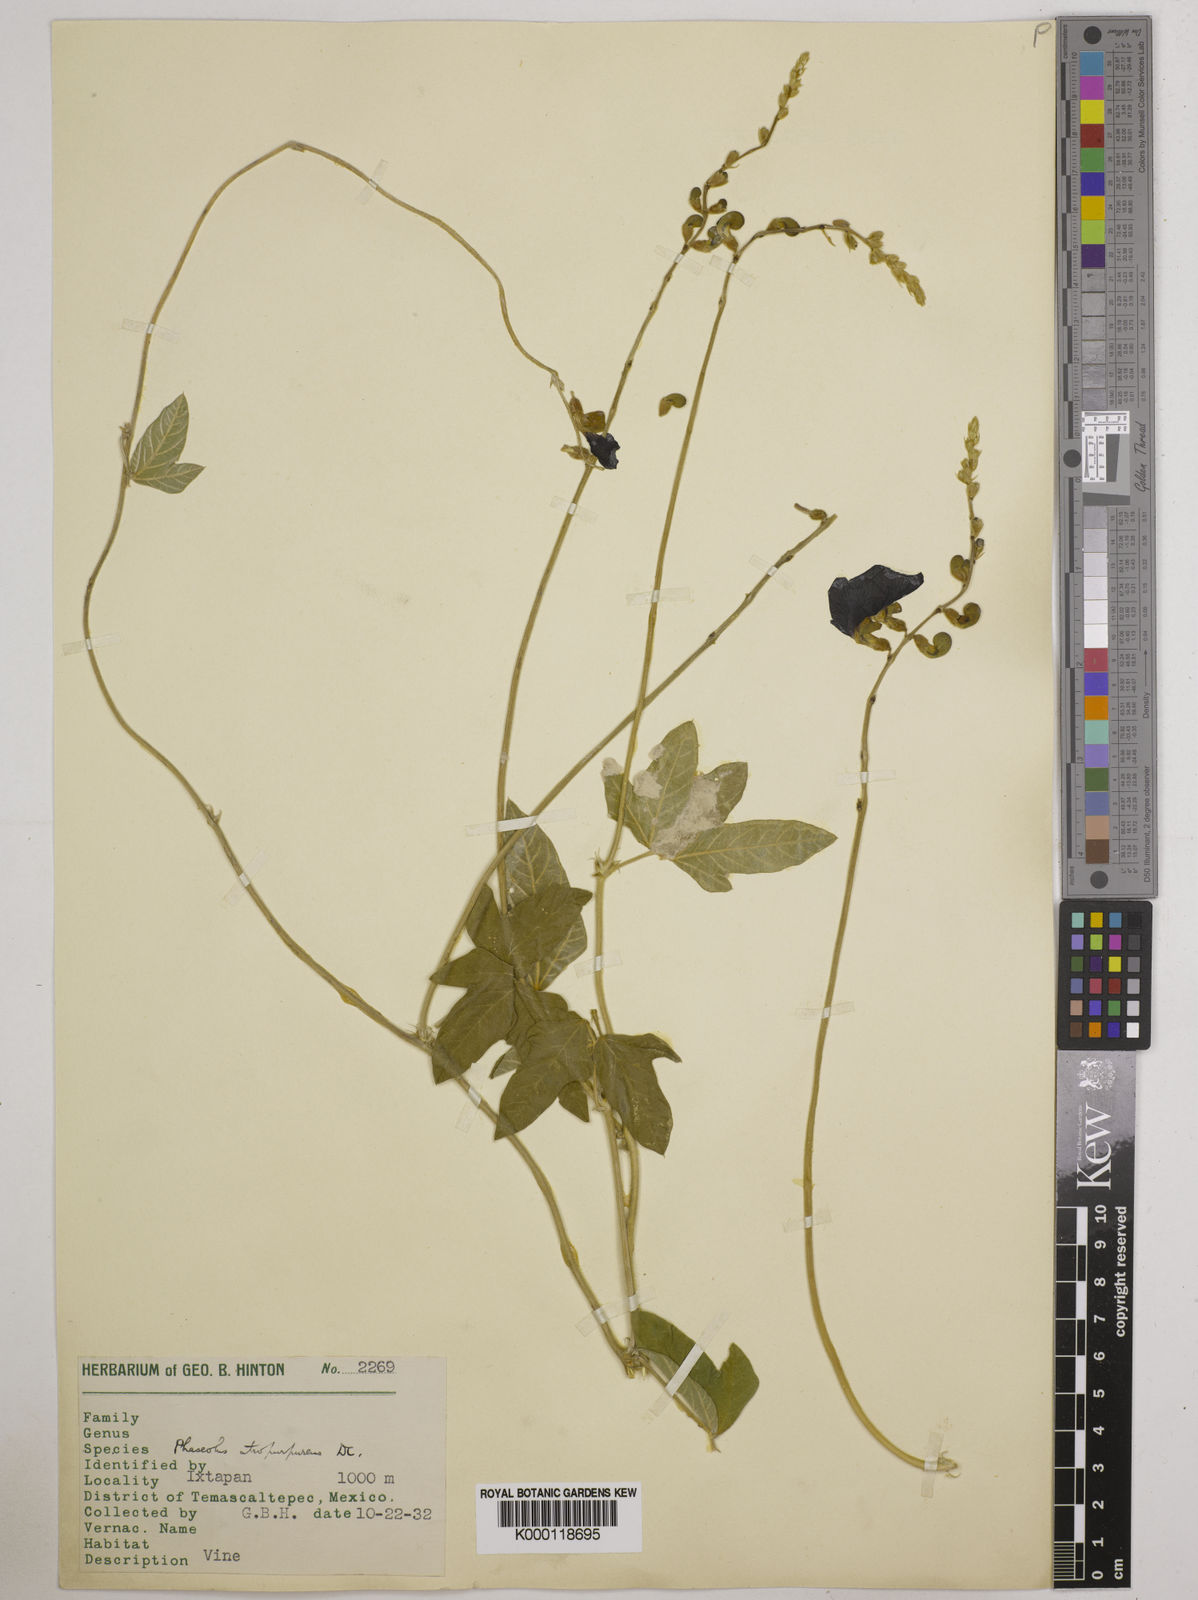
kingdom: Plantae
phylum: Tracheophyta
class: Magnoliopsida
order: Fabales
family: Fabaceae
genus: Macroptilium
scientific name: Macroptilium atropurpureum
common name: Purple bushbean
